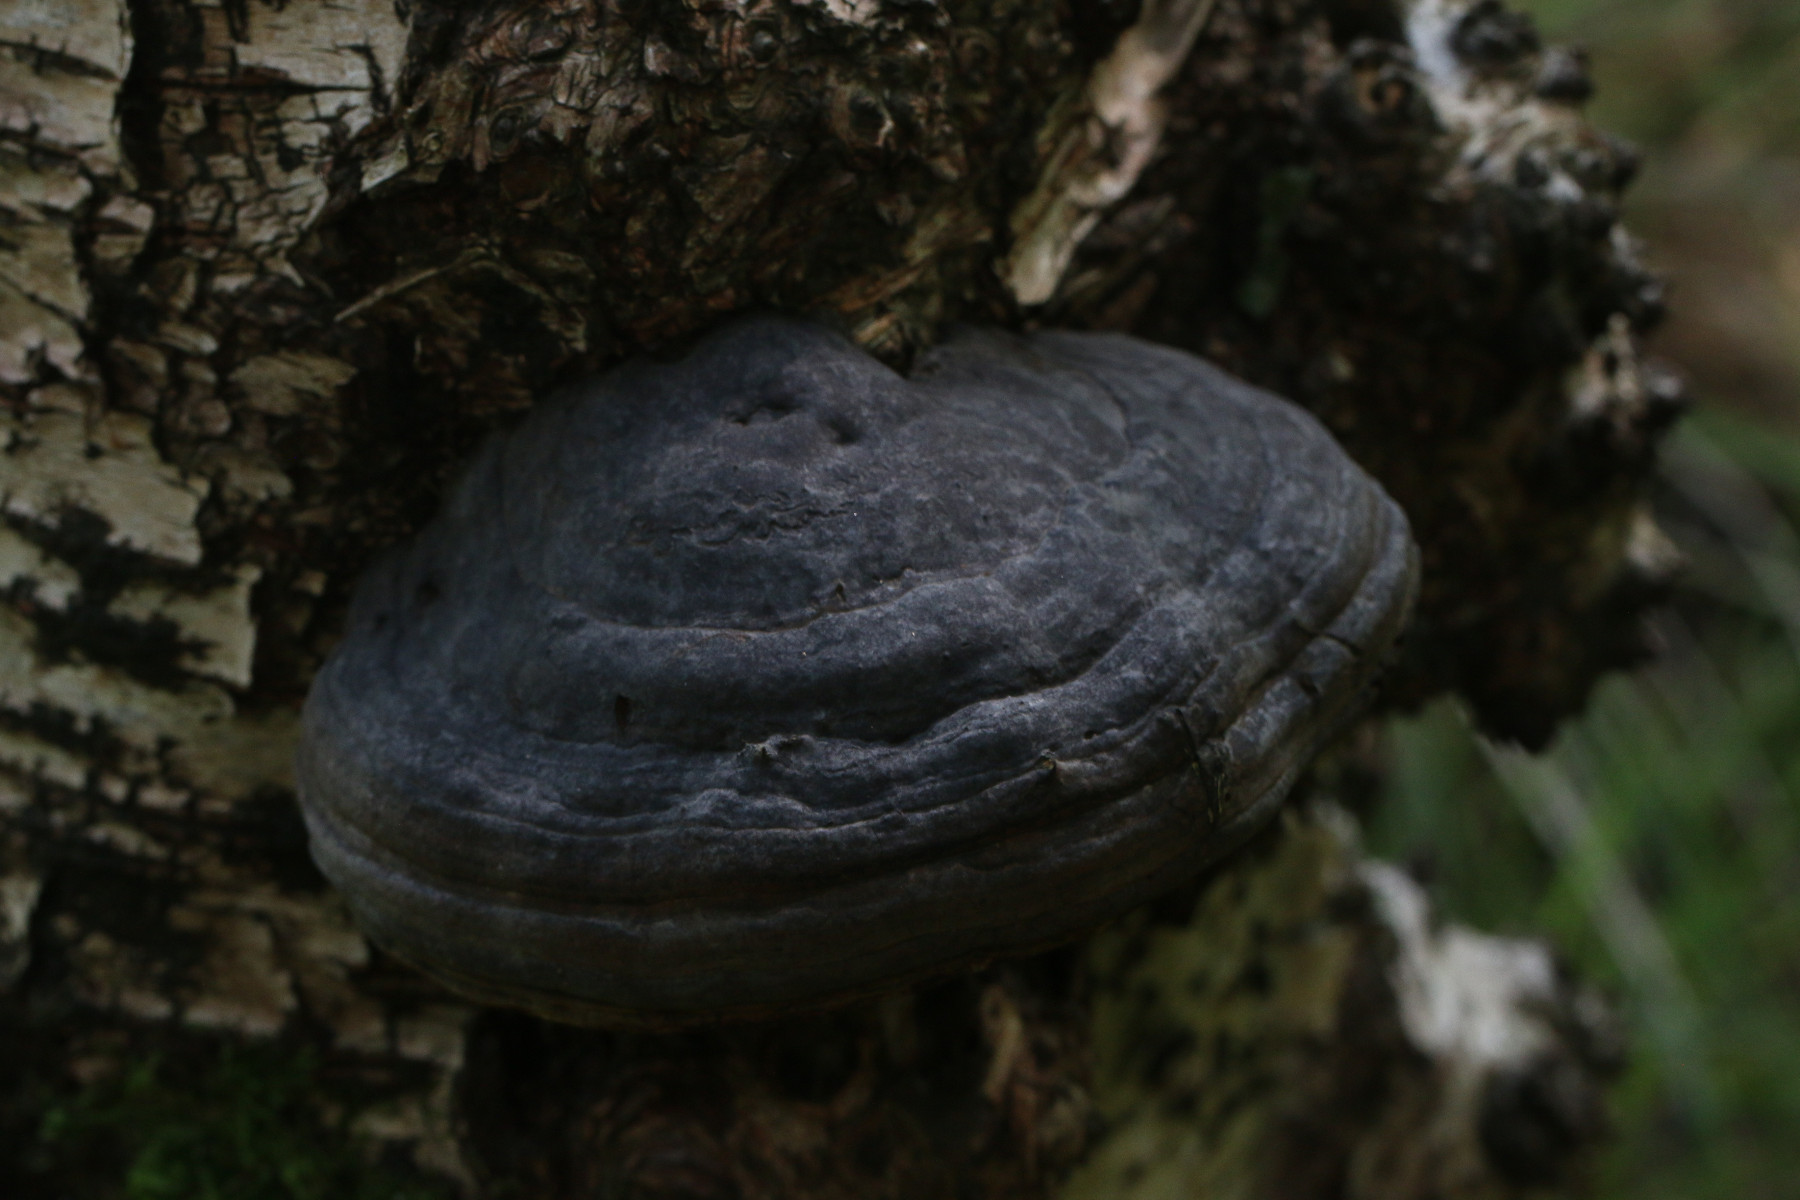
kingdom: Fungi
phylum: Basidiomycota
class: Agaricomycetes
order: Polyporales
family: Polyporaceae
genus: Fomes
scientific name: Fomes fomentarius
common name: tøndersvamp
